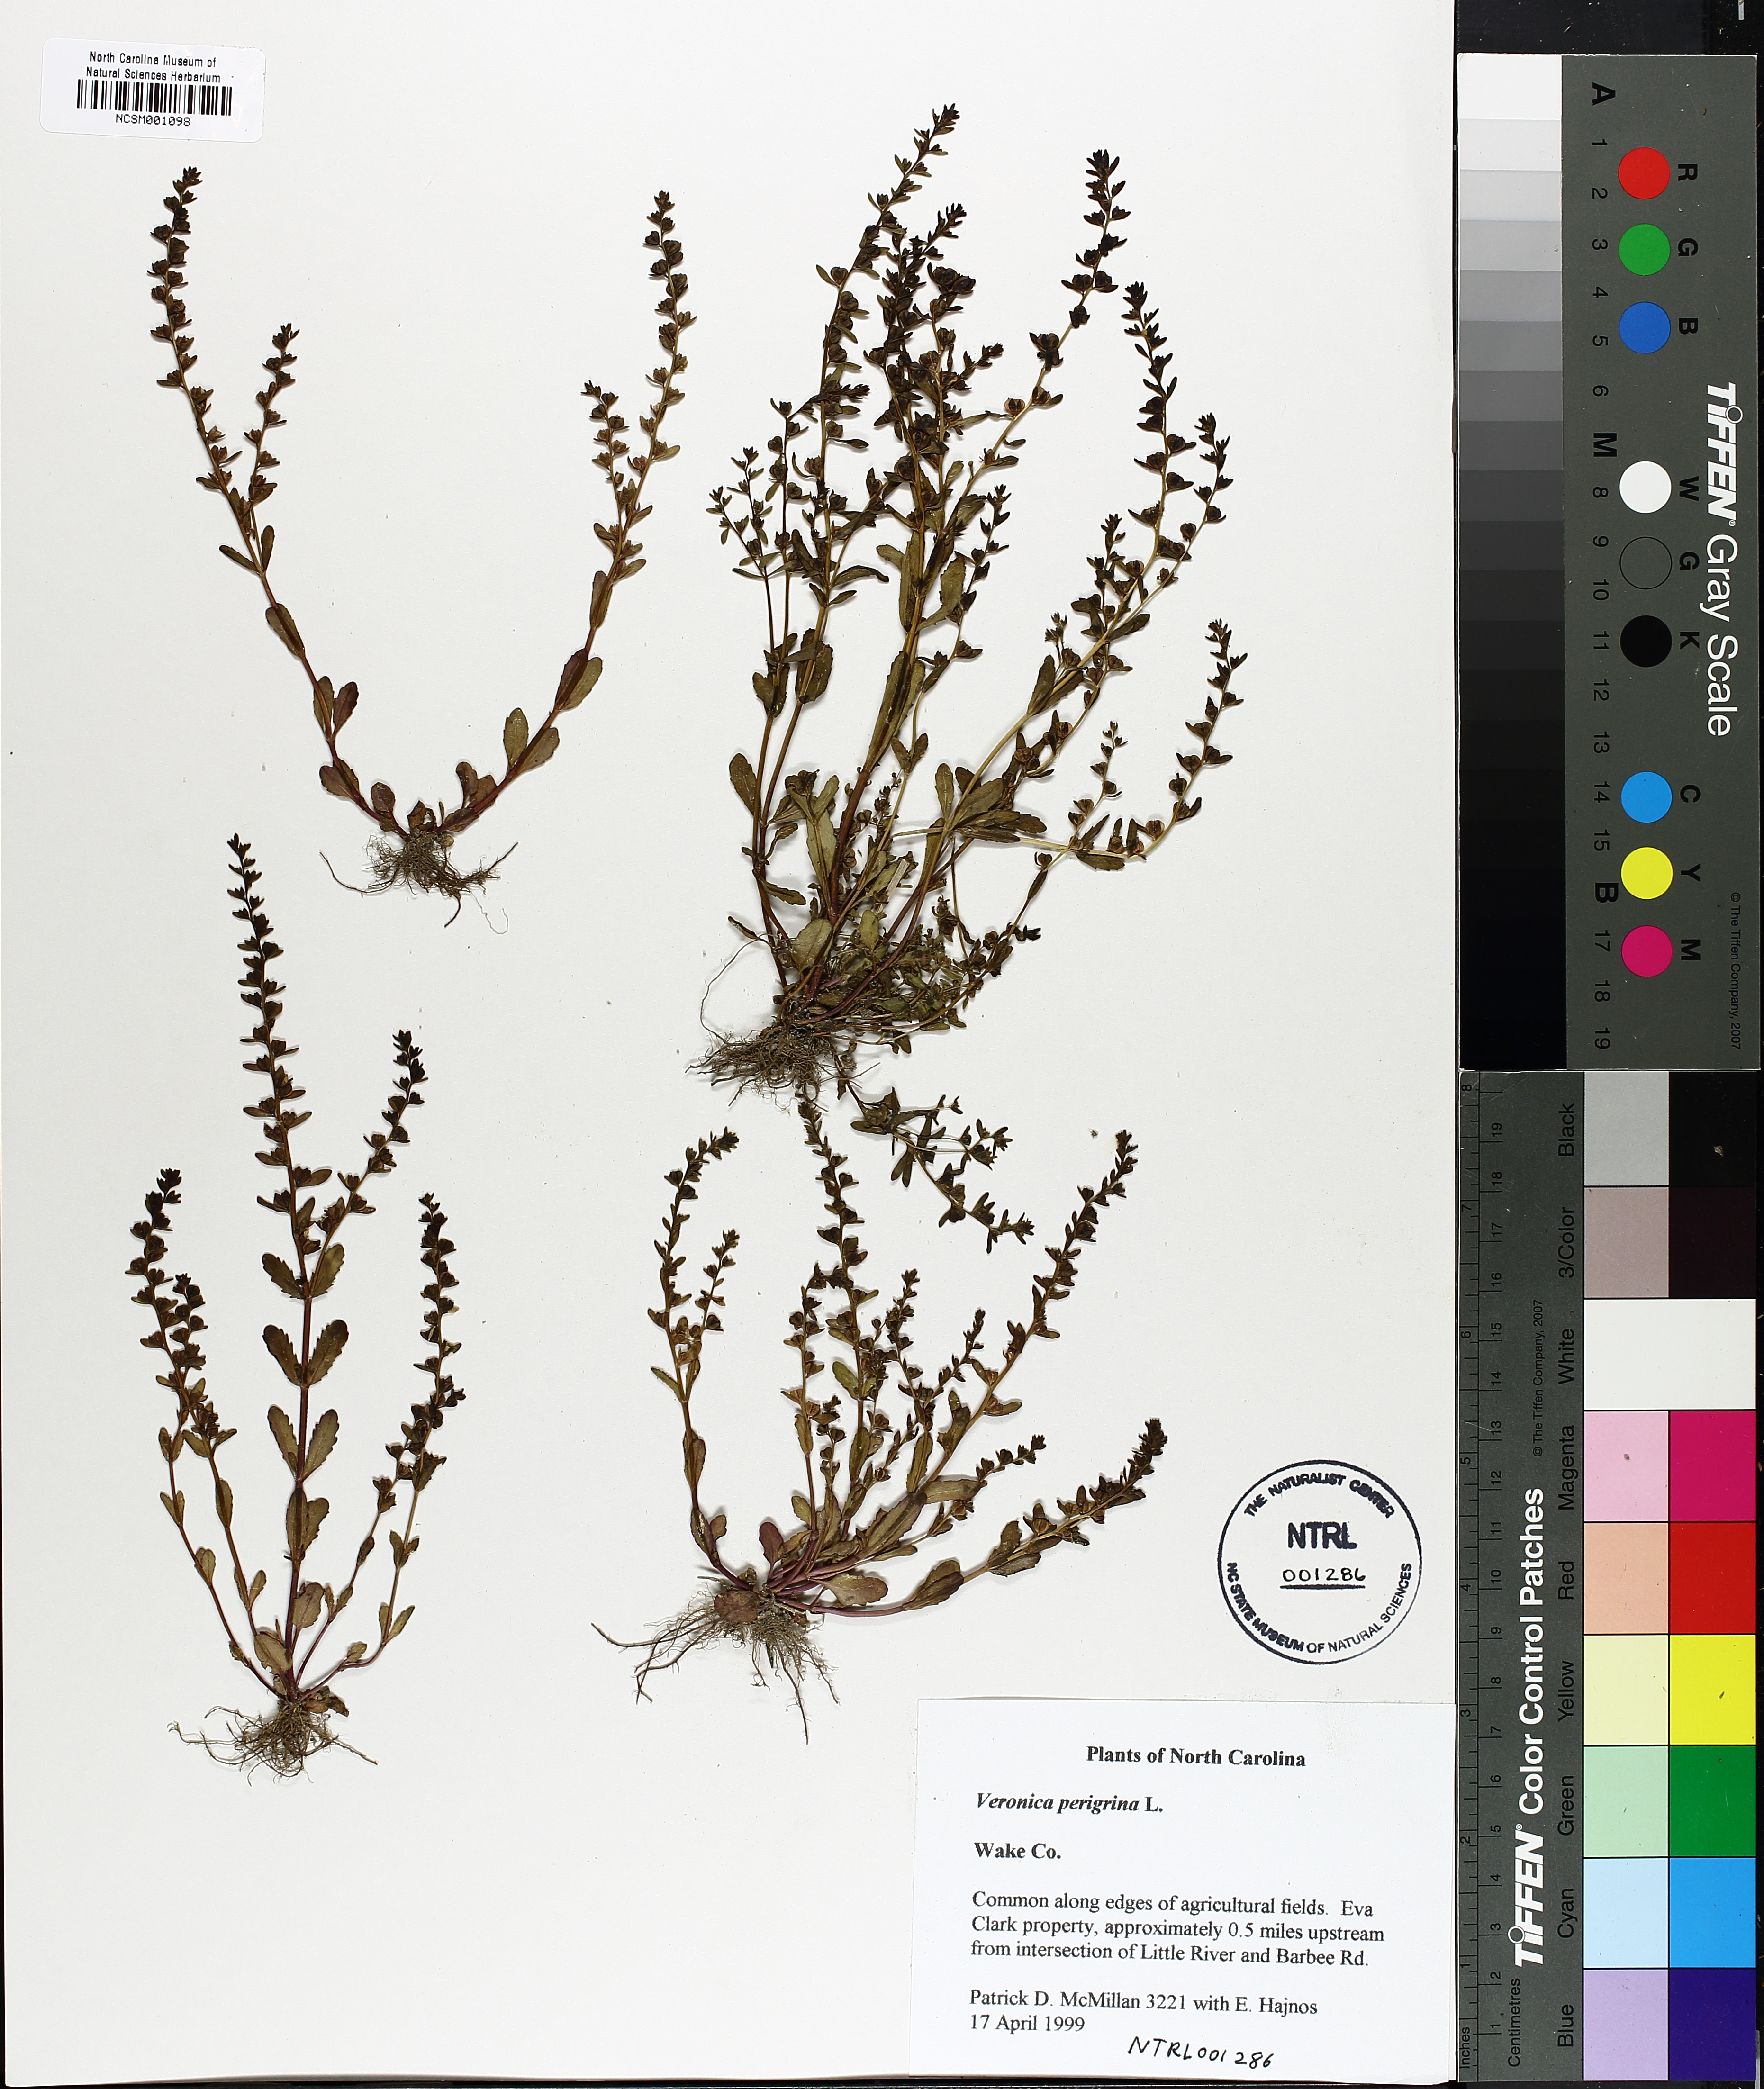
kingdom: Plantae
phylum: Tracheophyta
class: Magnoliopsida
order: Lamiales
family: Plantaginaceae
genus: Veronica
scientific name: Veronica peregrina
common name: Neckweed
